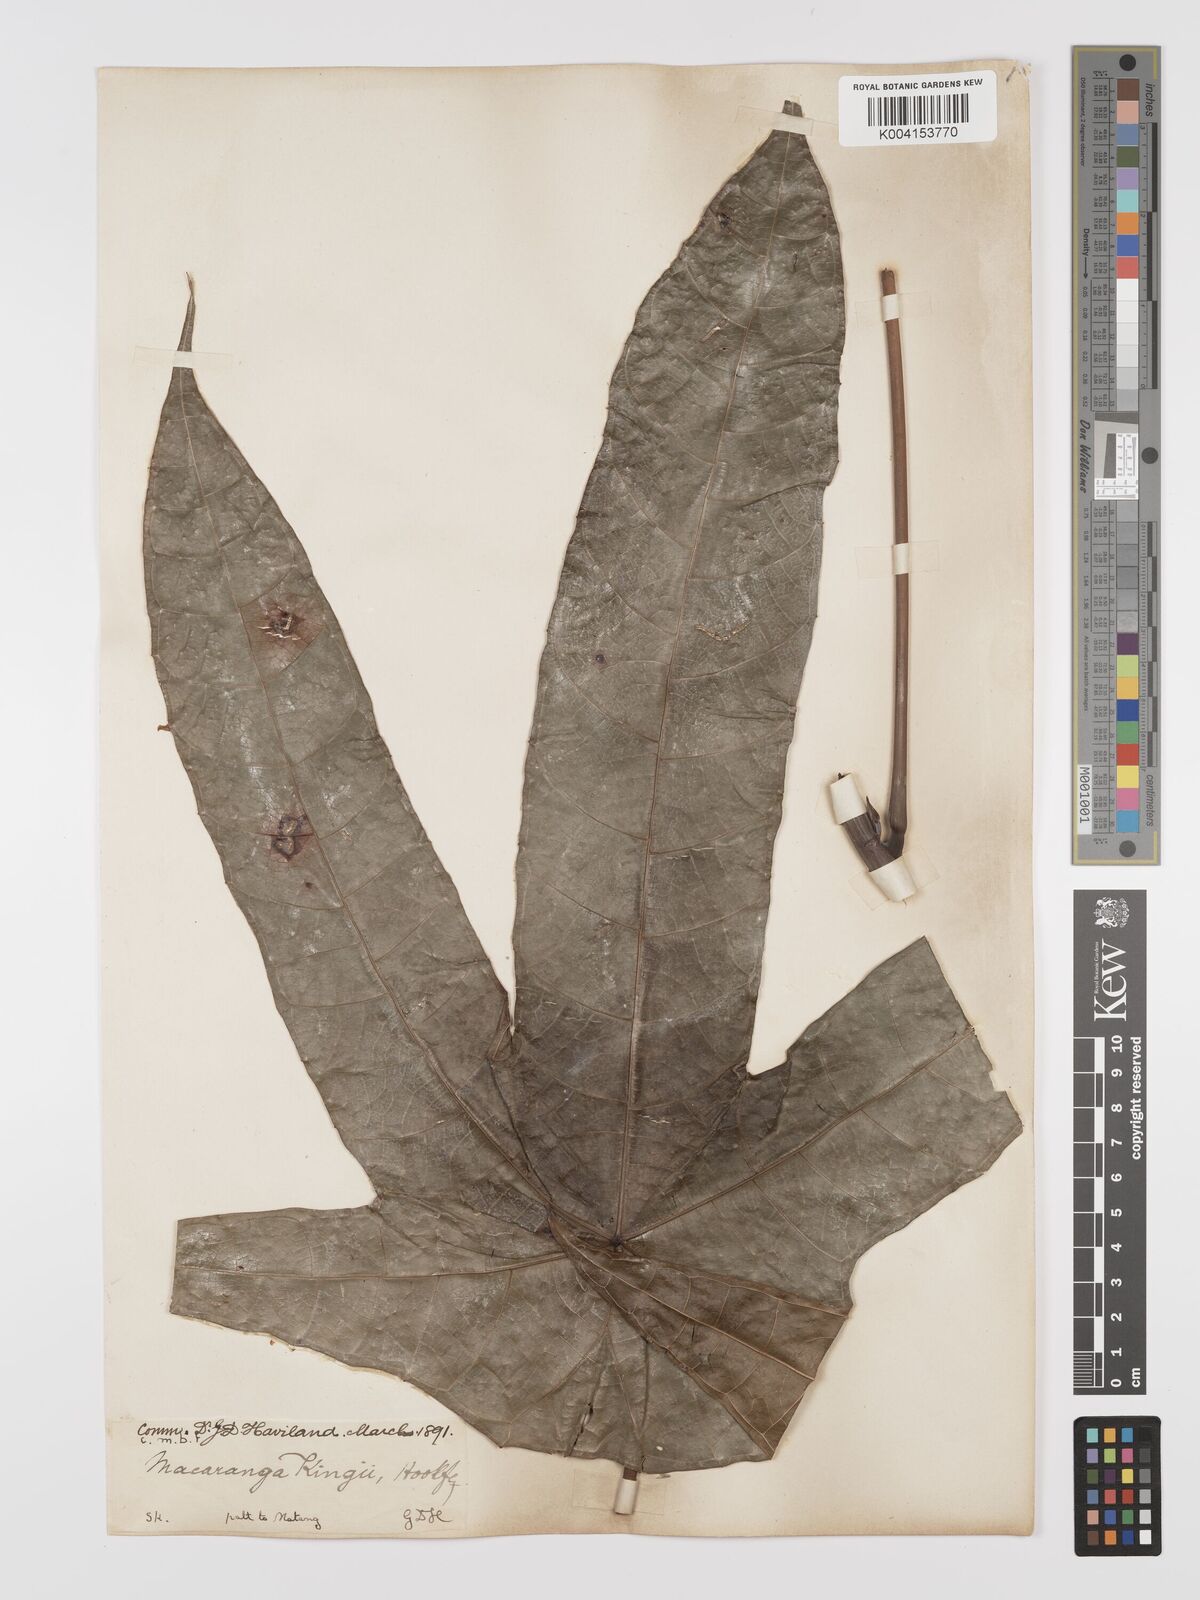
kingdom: Plantae
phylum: Tracheophyta
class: Magnoliopsida
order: Malpighiales
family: Euphorbiaceae
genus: Macaranga
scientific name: Macaranga kingii
